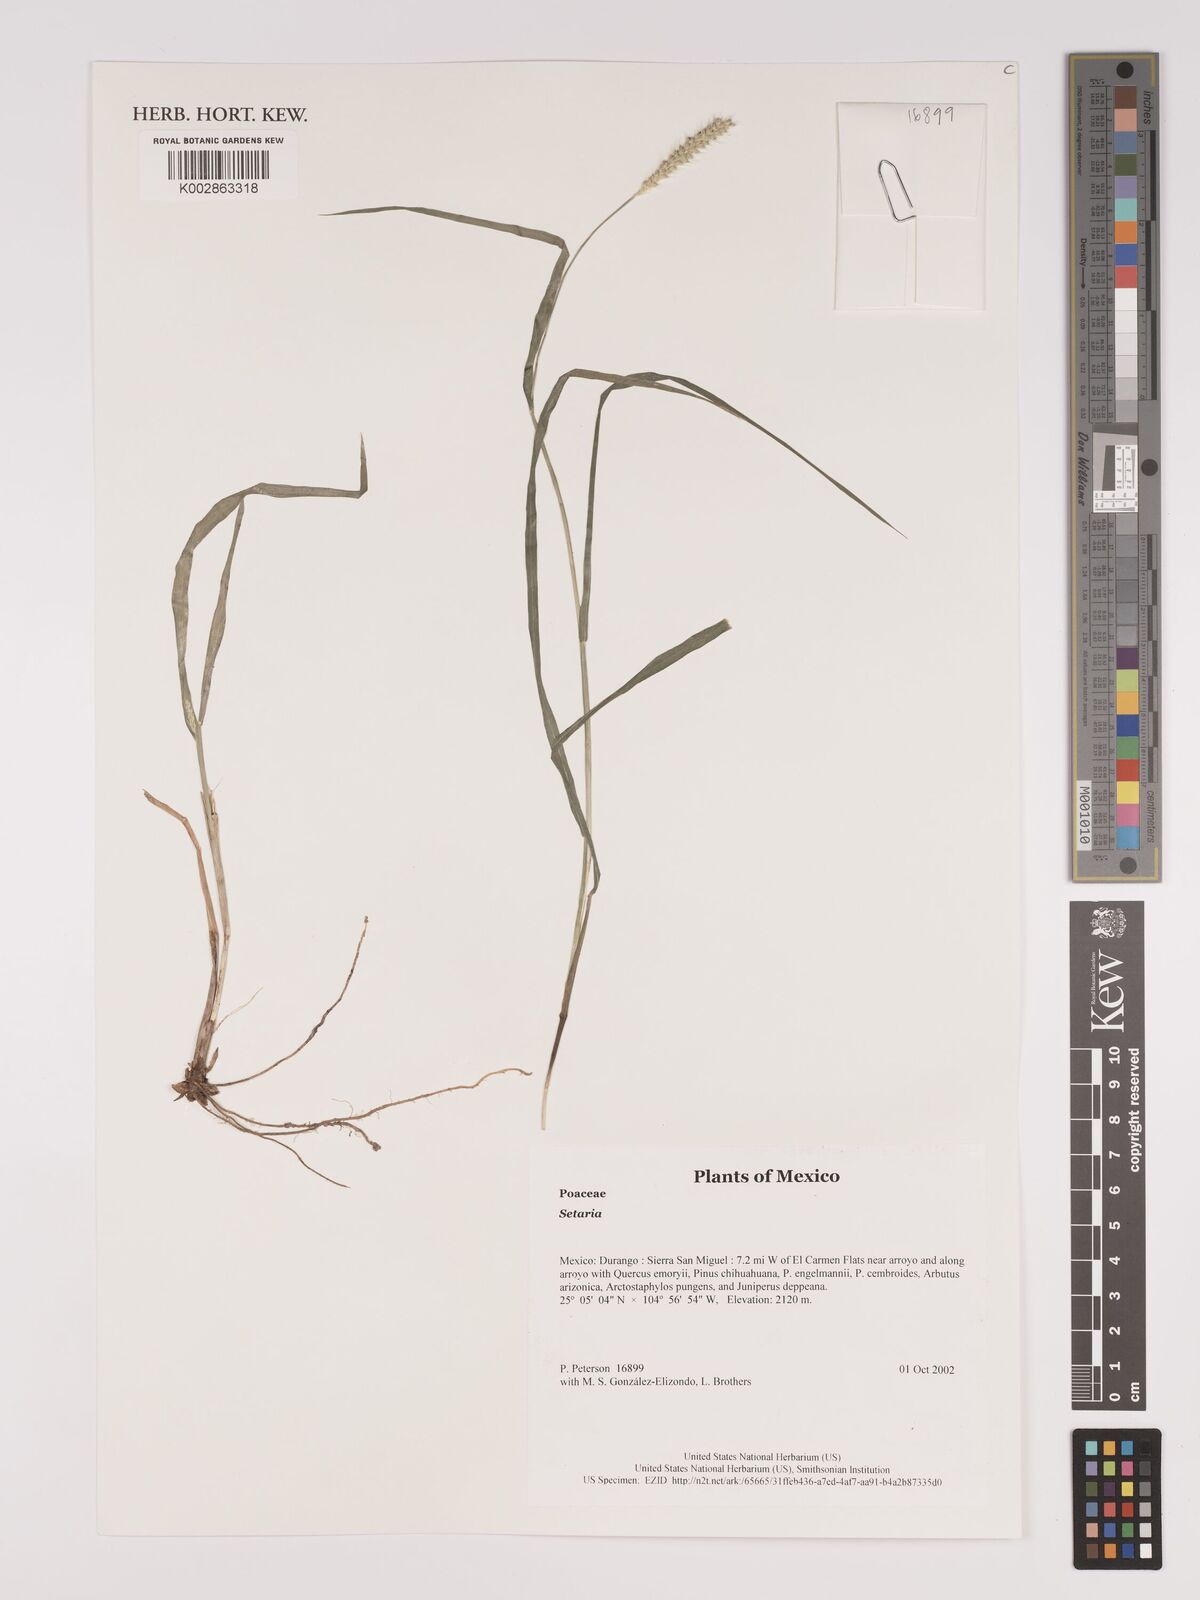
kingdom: Plantae
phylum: Tracheophyta
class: Liliopsida
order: Poales
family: Poaceae
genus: Setaria
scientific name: Setaria
